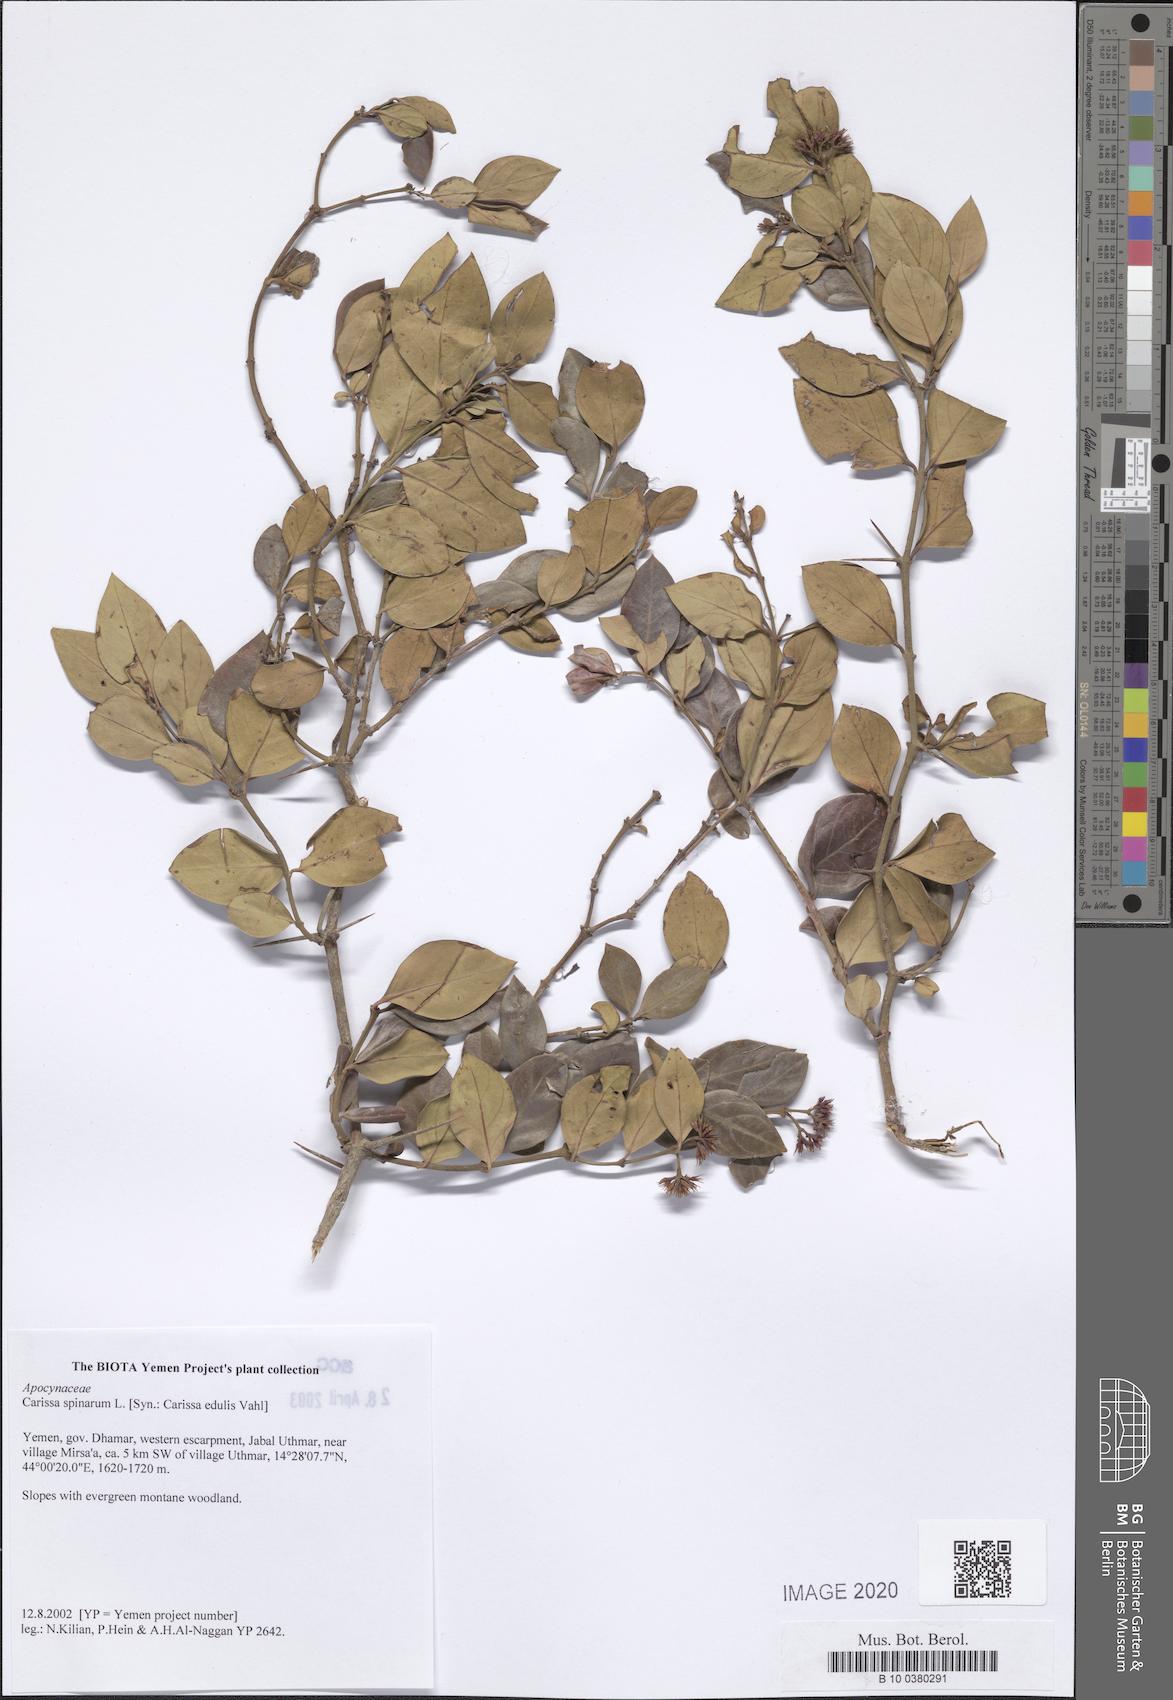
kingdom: Plantae
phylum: Tracheophyta
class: Magnoliopsida
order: Gentianales
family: Apocynaceae
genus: Carissa
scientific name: Carissa spinarum
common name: Egyptian carissa
